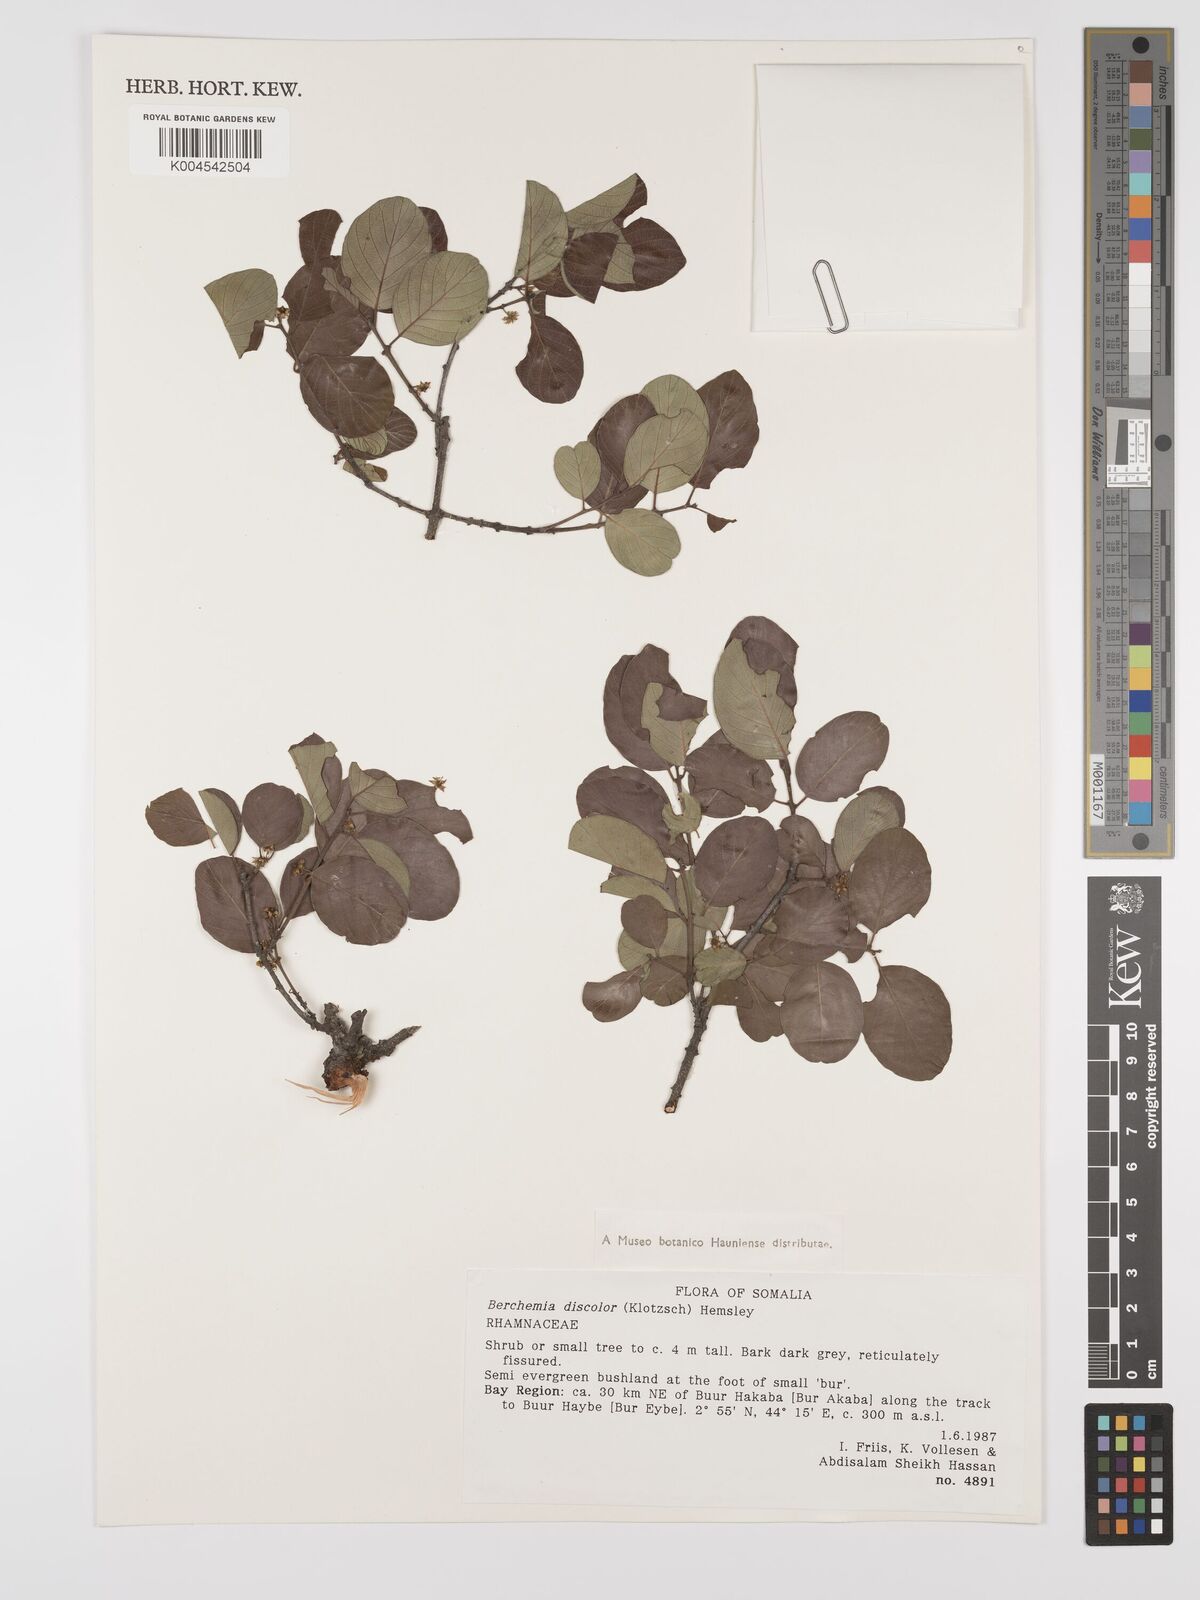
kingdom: Plantae
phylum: Tracheophyta
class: Magnoliopsida
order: Rosales
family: Rhamnaceae
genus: Phyllogeiton
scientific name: Phyllogeiton discolor
